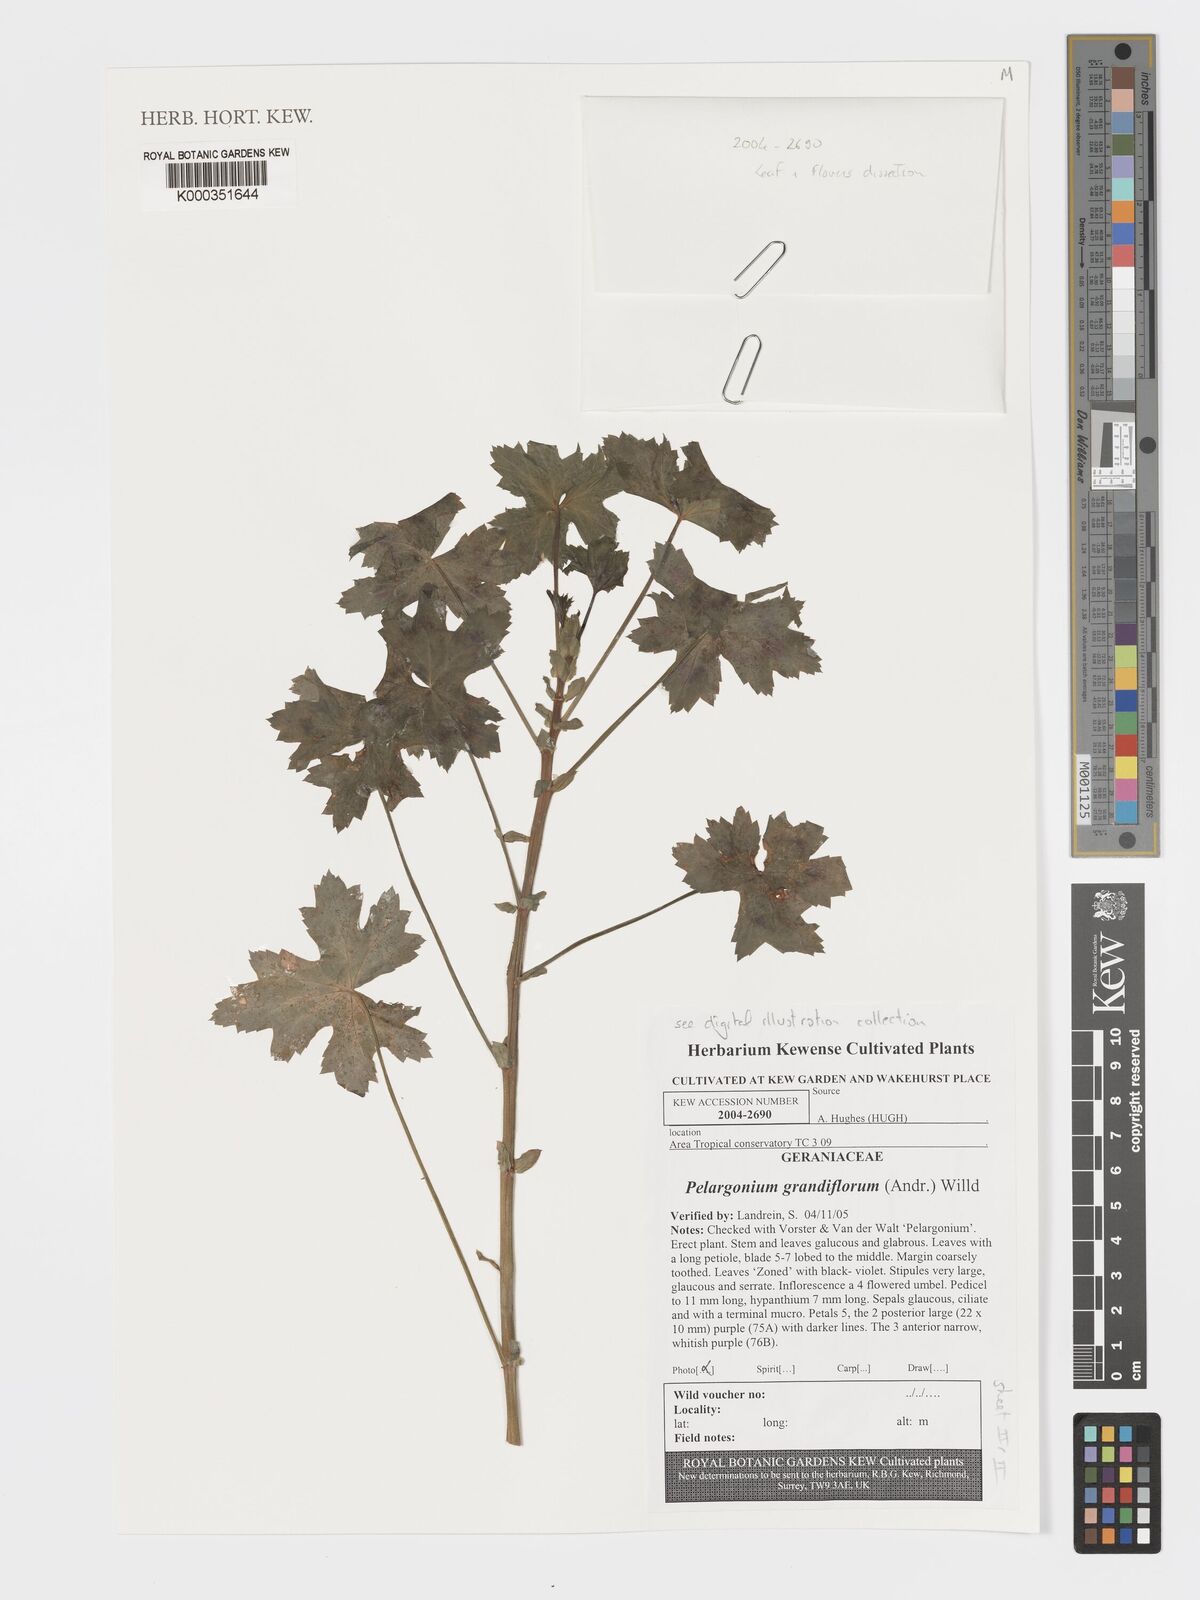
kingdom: Plantae
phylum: Tracheophyta
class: Magnoliopsida
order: Geraniales
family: Geraniaceae
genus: Pelargonium
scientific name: Pelargonium grandiflorum
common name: Large-flower pelargonium
